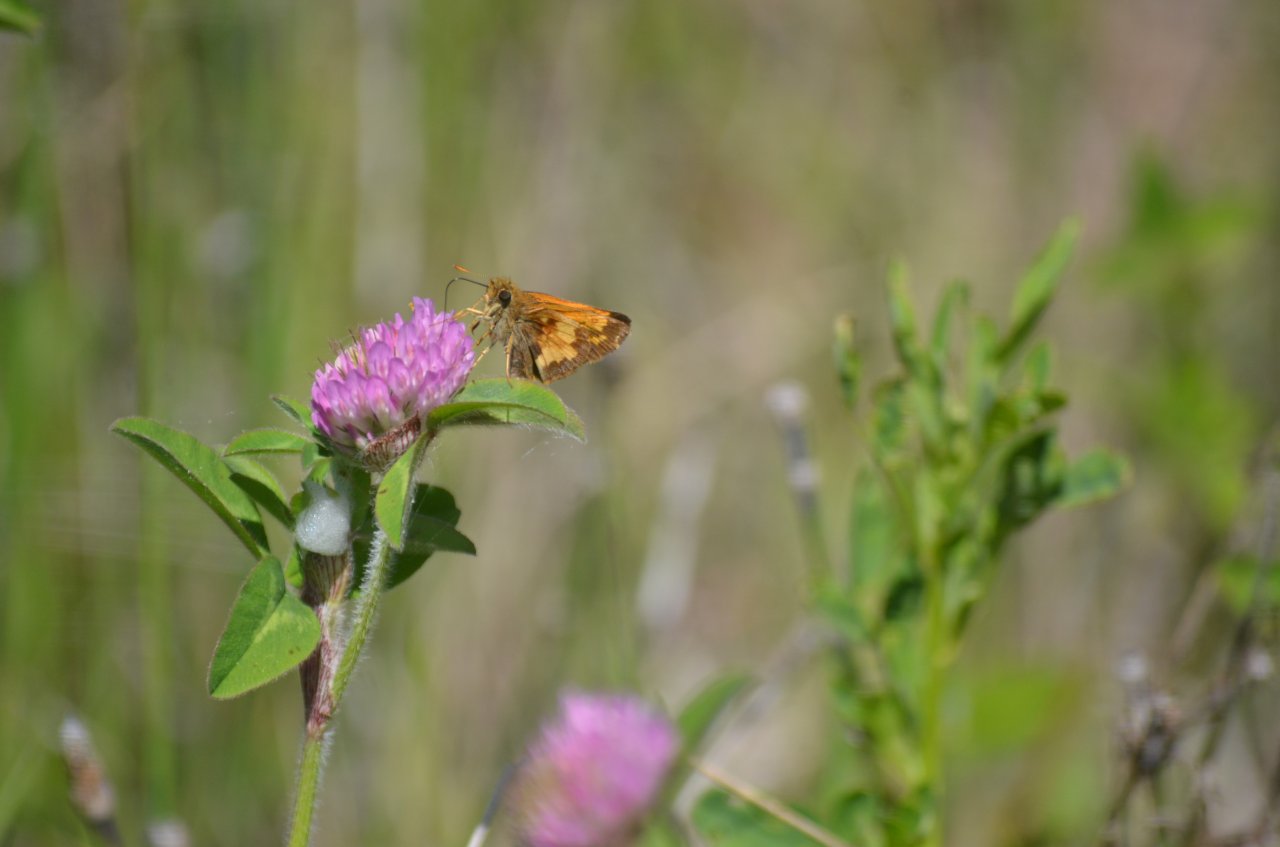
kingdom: Animalia
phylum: Arthropoda
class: Insecta
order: Lepidoptera
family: Hesperiidae
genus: Lon
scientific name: Lon hobomok
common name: Hobomok Skipper
